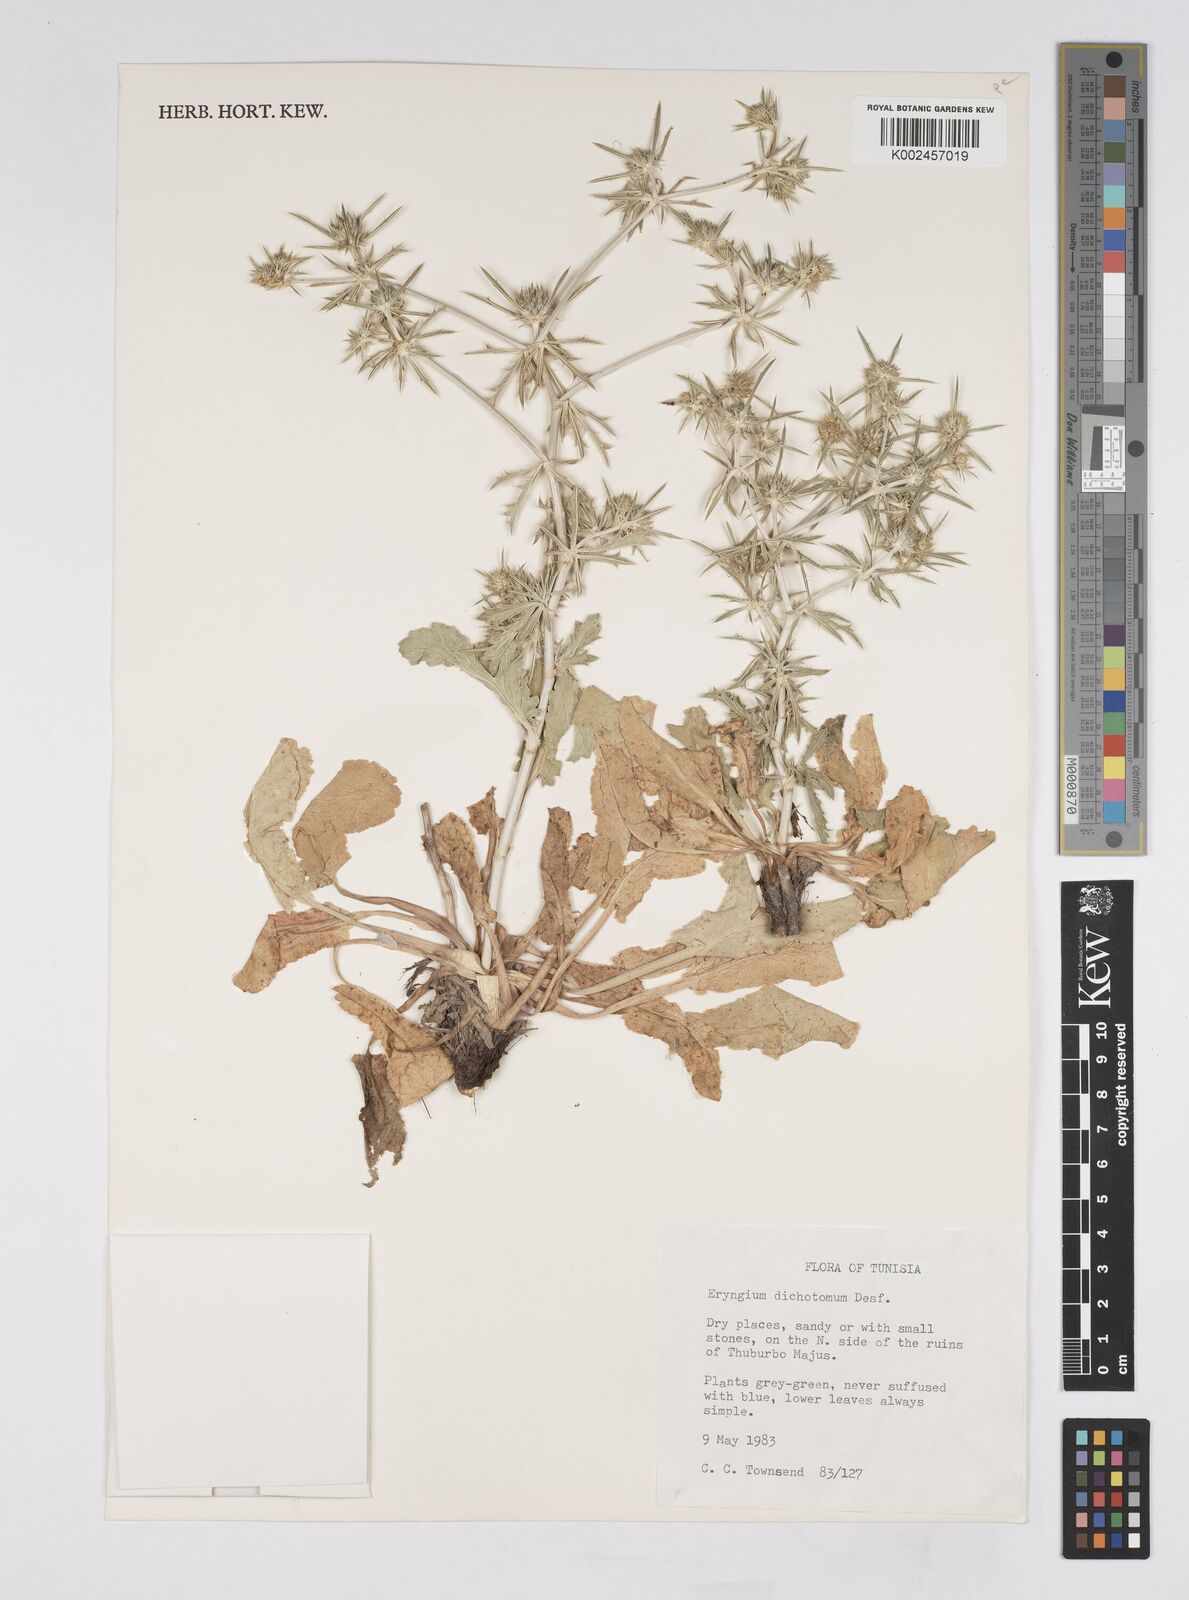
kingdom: Plantae
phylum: Tracheophyta
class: Magnoliopsida
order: Apiales
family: Apiaceae
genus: Eryngium
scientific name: Eryngium dichotomum
